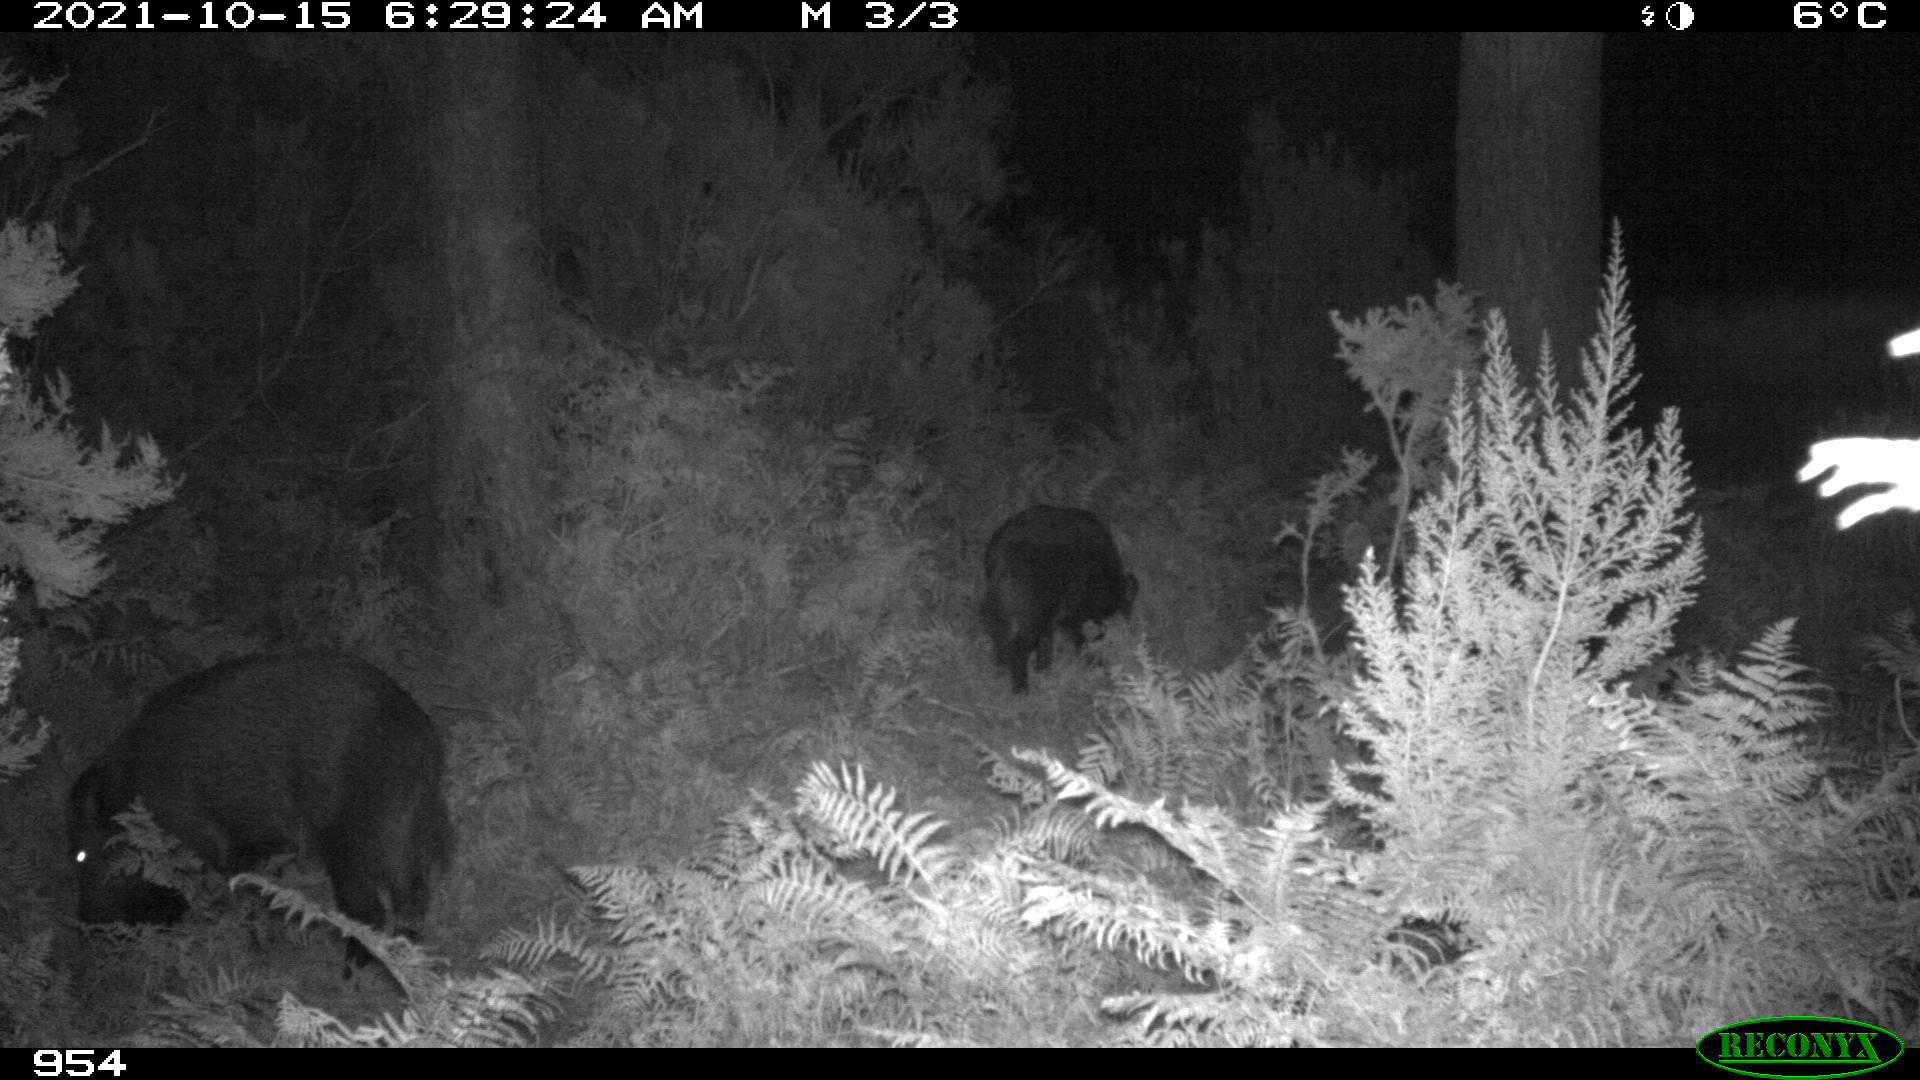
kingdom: Animalia
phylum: Chordata
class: Mammalia
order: Artiodactyla
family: Suidae
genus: Sus
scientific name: Sus scrofa
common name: Wild boar
